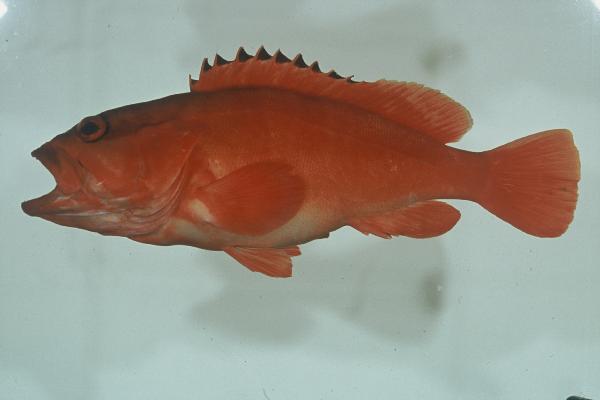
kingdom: Animalia
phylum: Chordata
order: Perciformes
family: Serranidae
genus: Epinephelus
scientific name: Epinephelus fasciatus
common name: Blacktip grouper
